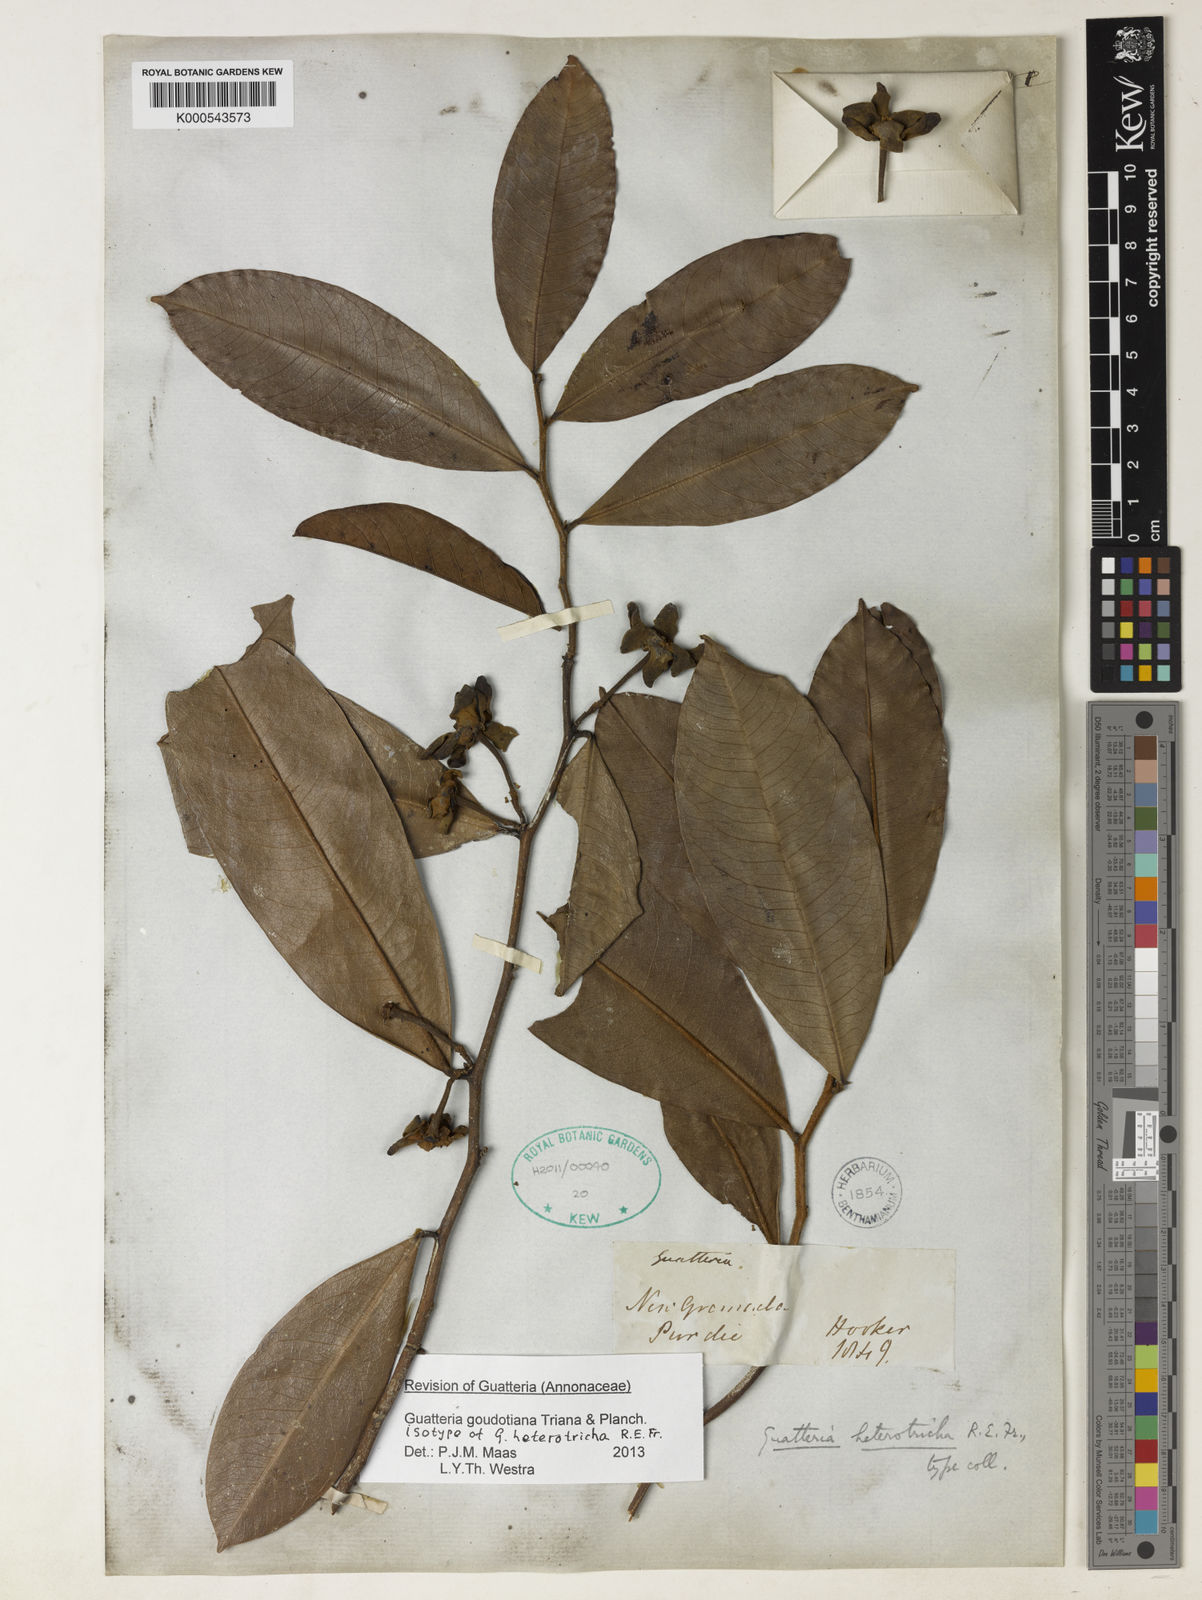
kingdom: Plantae
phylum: Tracheophyta
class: Magnoliopsida
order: Magnoliales
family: Annonaceae
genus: Guatteria
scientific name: Guatteria goudotiana
